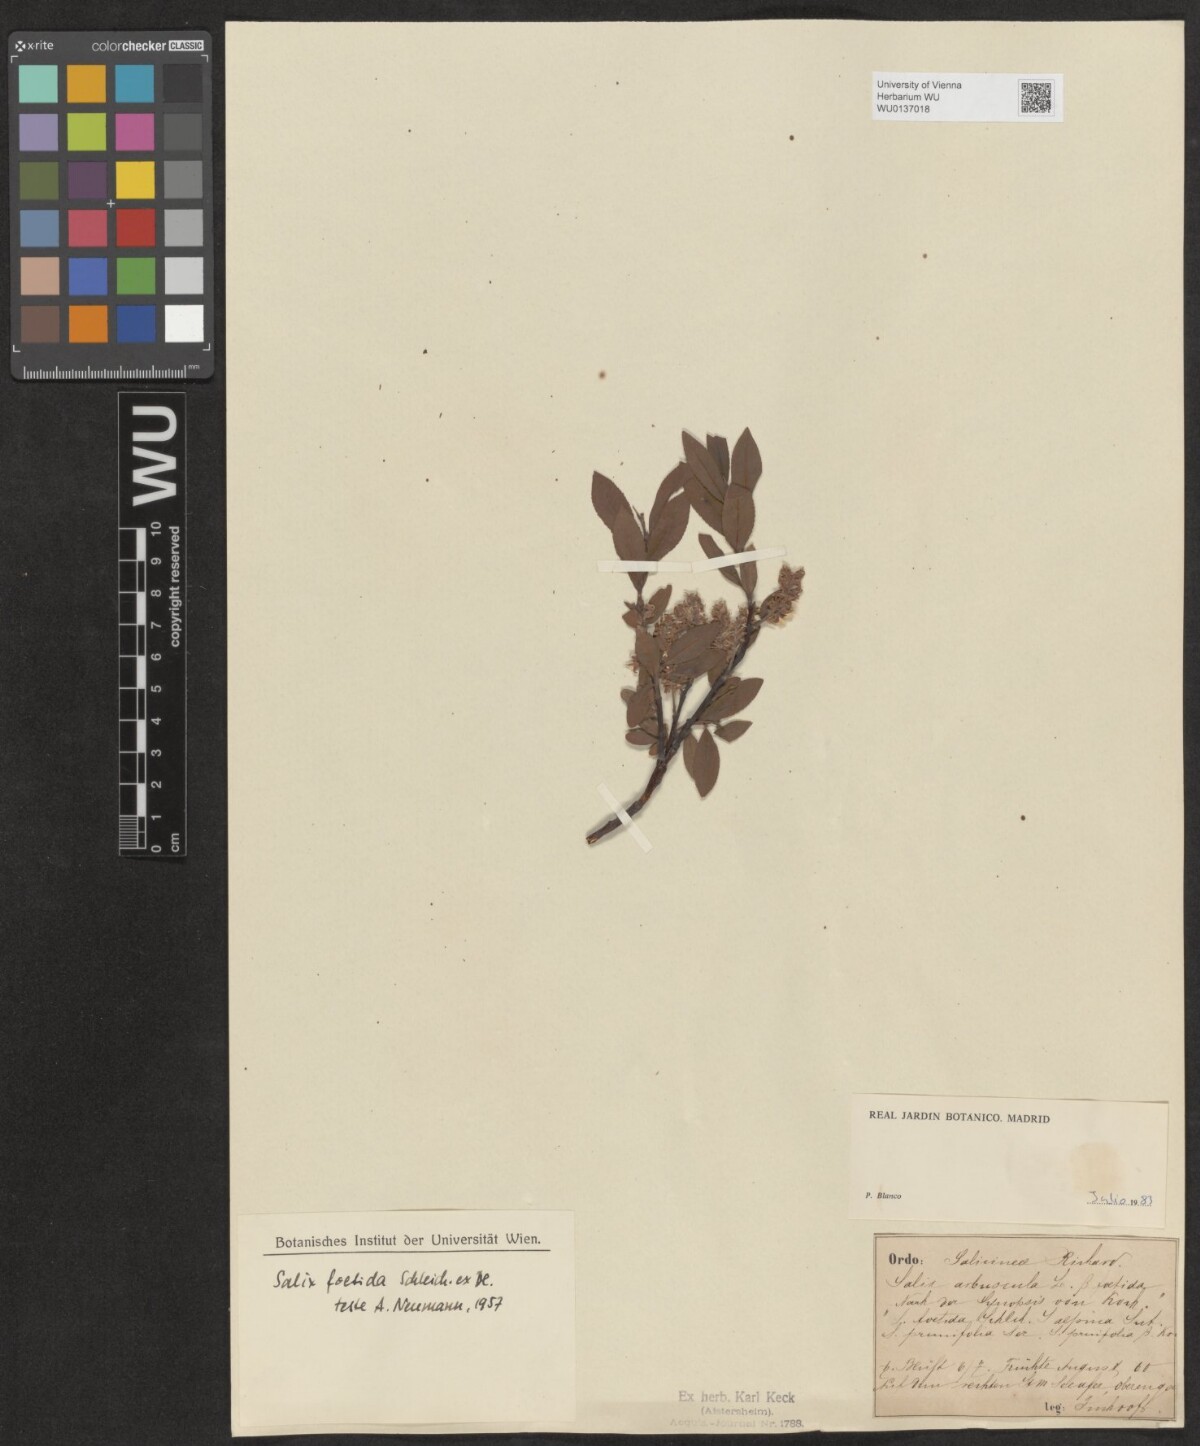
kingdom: Plantae
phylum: Tracheophyta
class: Magnoliopsida
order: Malpighiales
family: Salicaceae
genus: Salix
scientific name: Salix foetida
